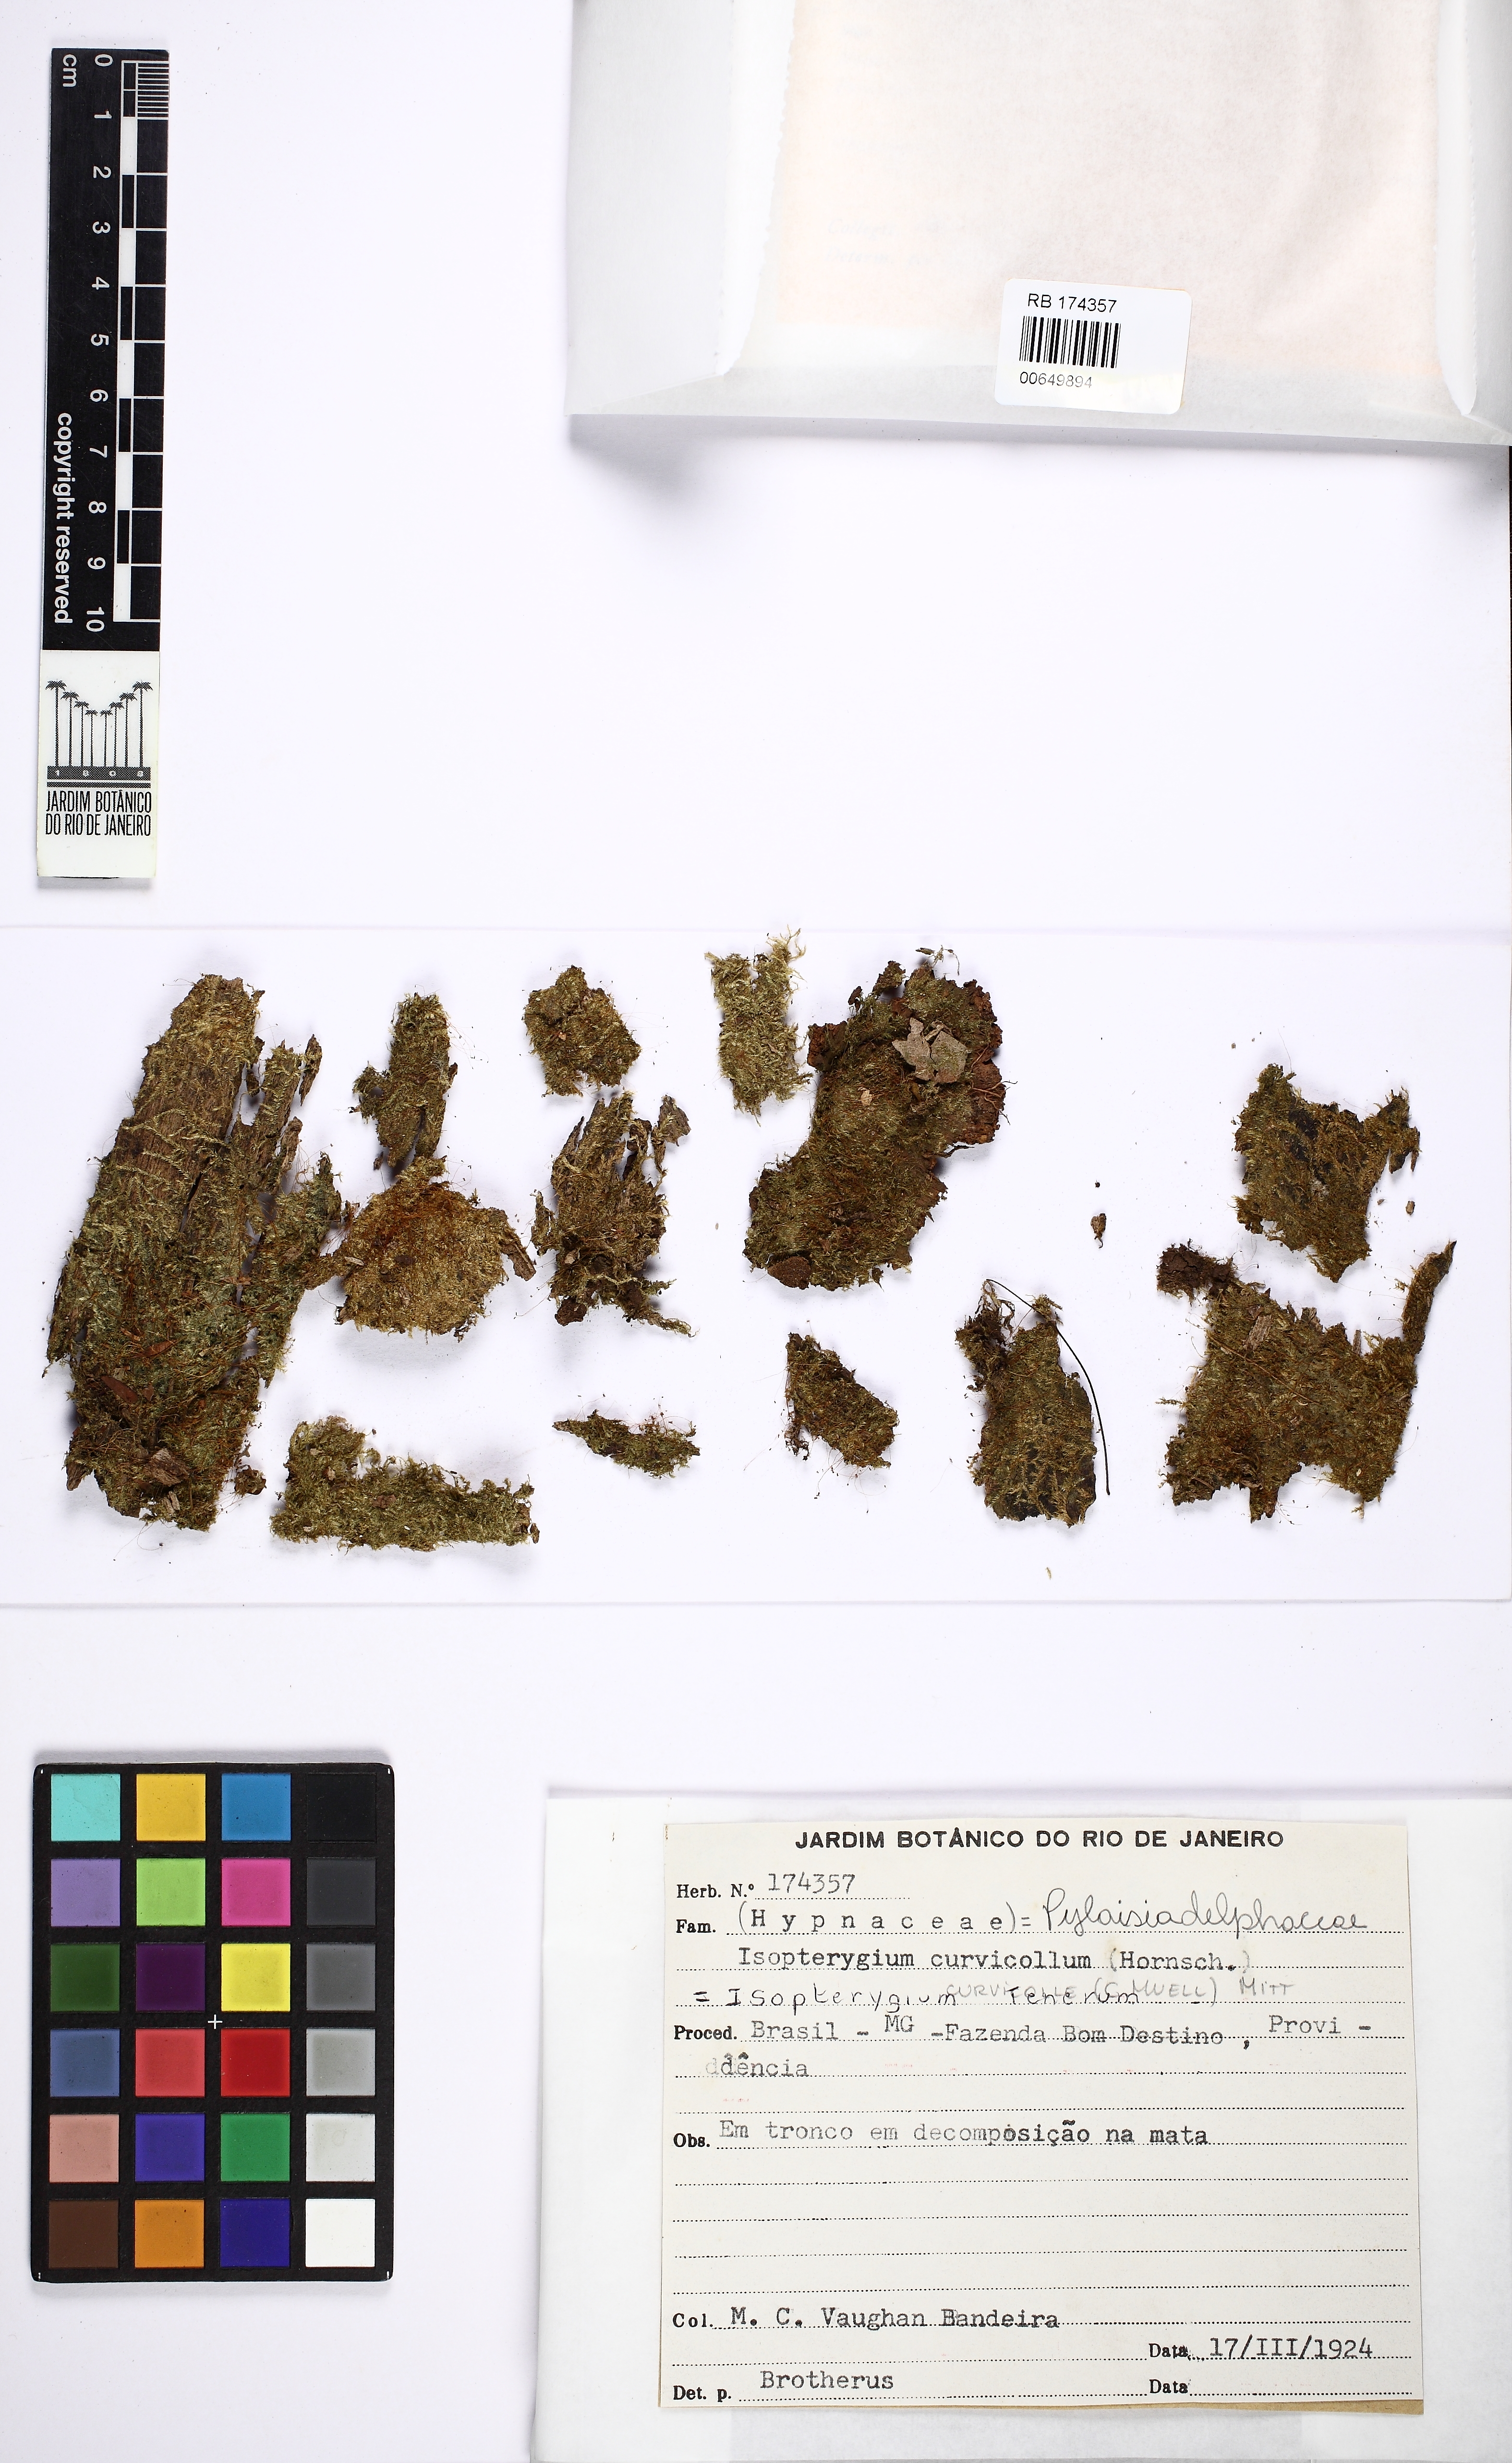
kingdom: Plantae
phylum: Bryophyta
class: Bryopsida
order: Hypnales
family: Pylaisiadelphaceae
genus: Isopterygium
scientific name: Isopterygium tenerum
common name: Isopterygium moss
